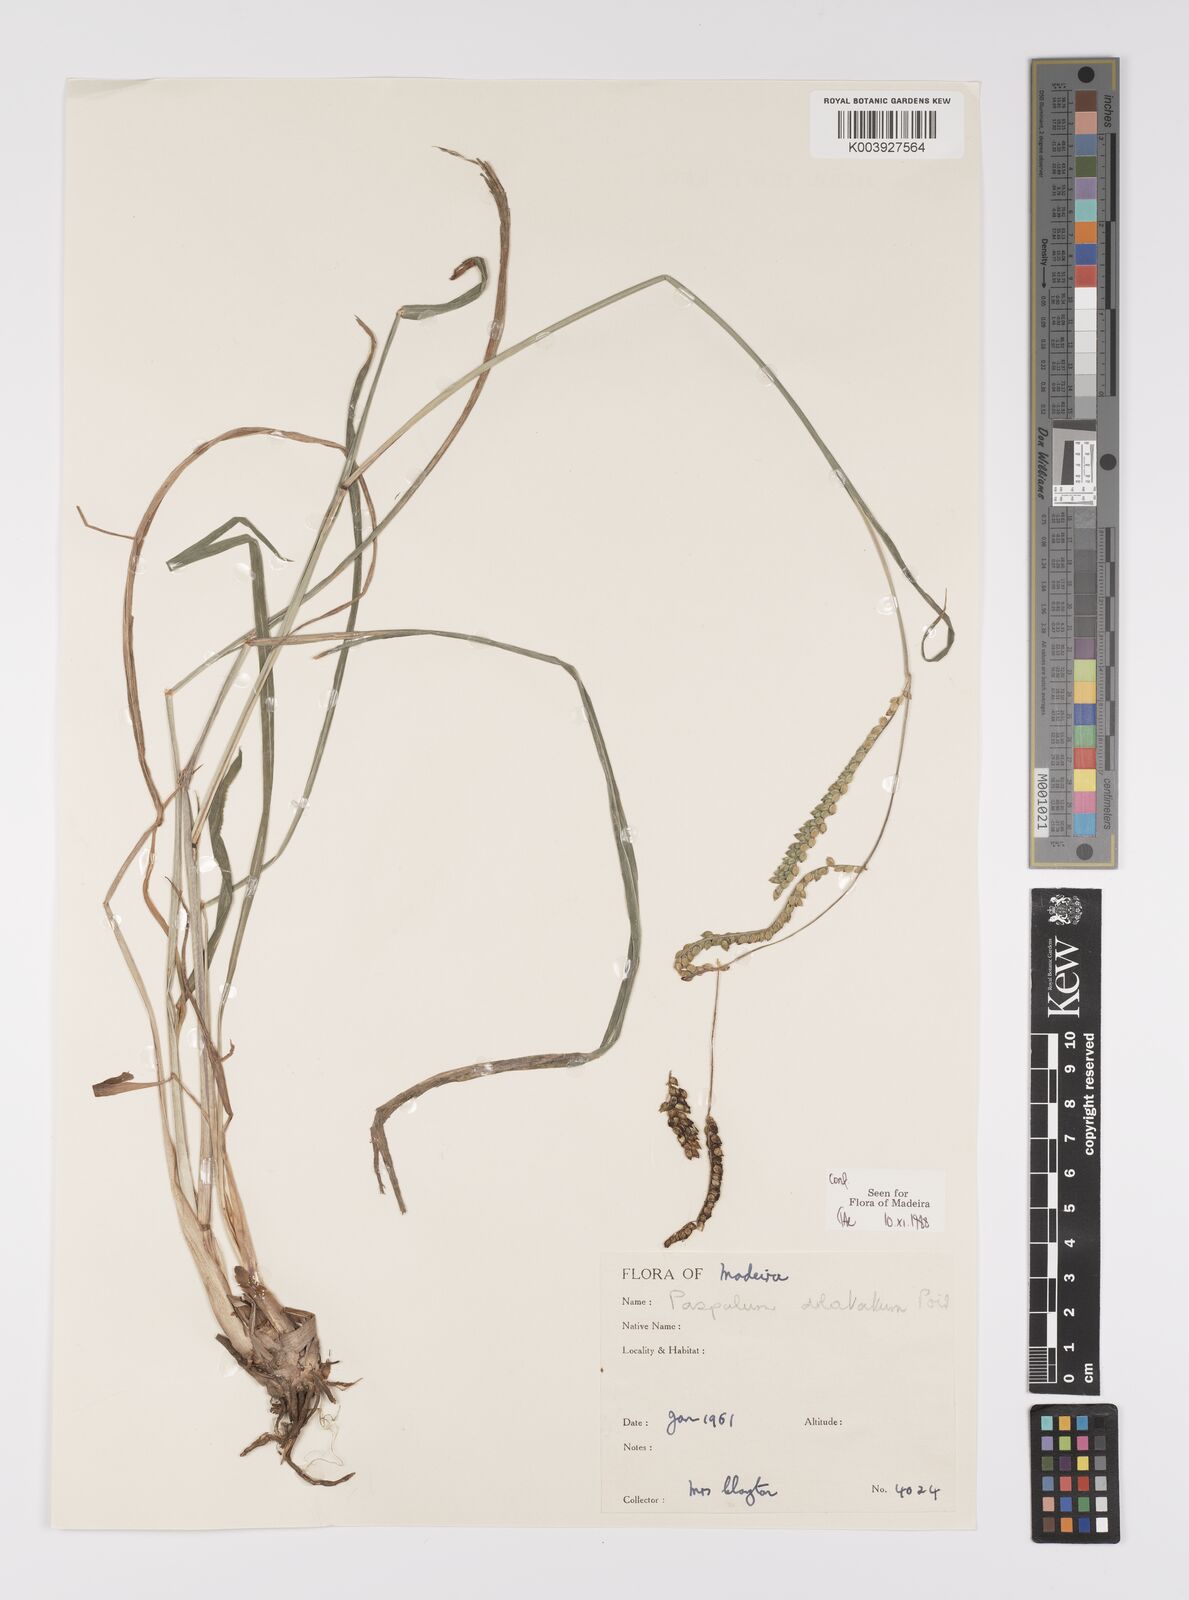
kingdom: Plantae
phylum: Tracheophyta
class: Liliopsida
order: Poales
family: Poaceae
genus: Paspalum
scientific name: Paspalum
